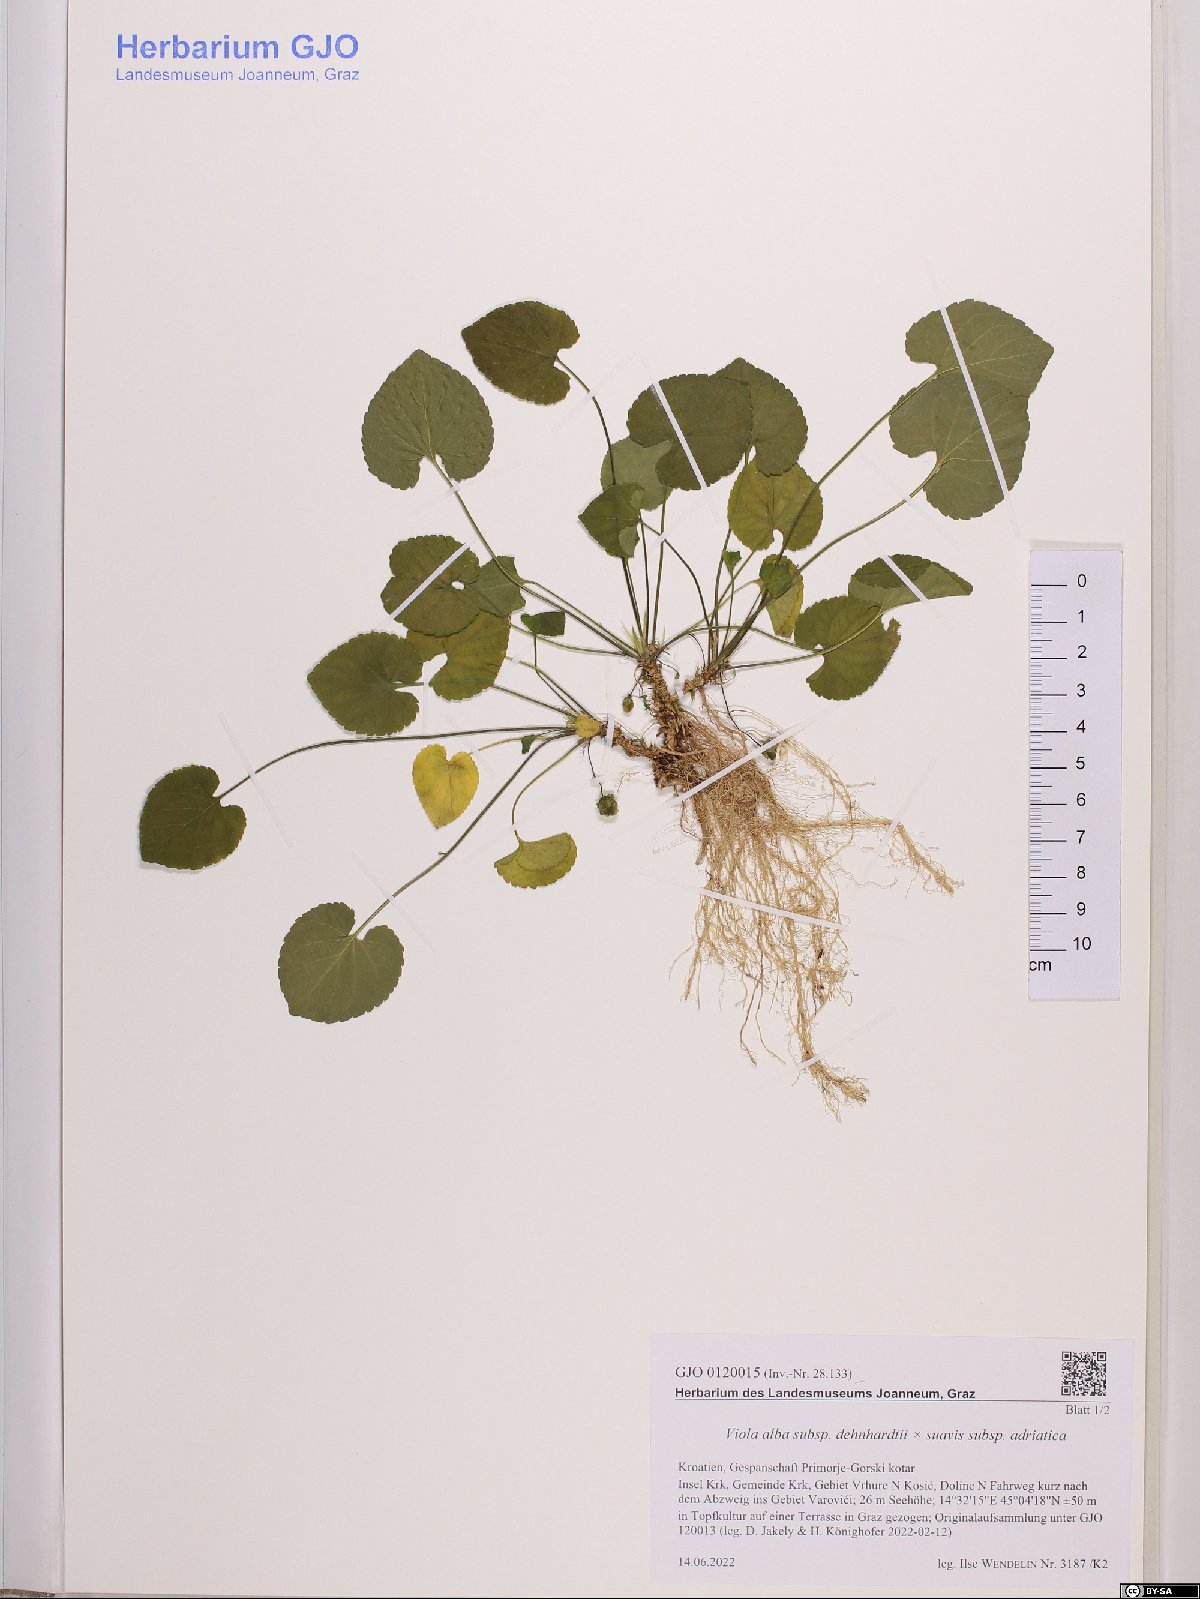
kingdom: Plantae
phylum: Tracheophyta
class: Magnoliopsida
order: Malpighiales
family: Violaceae
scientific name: Violaceae
